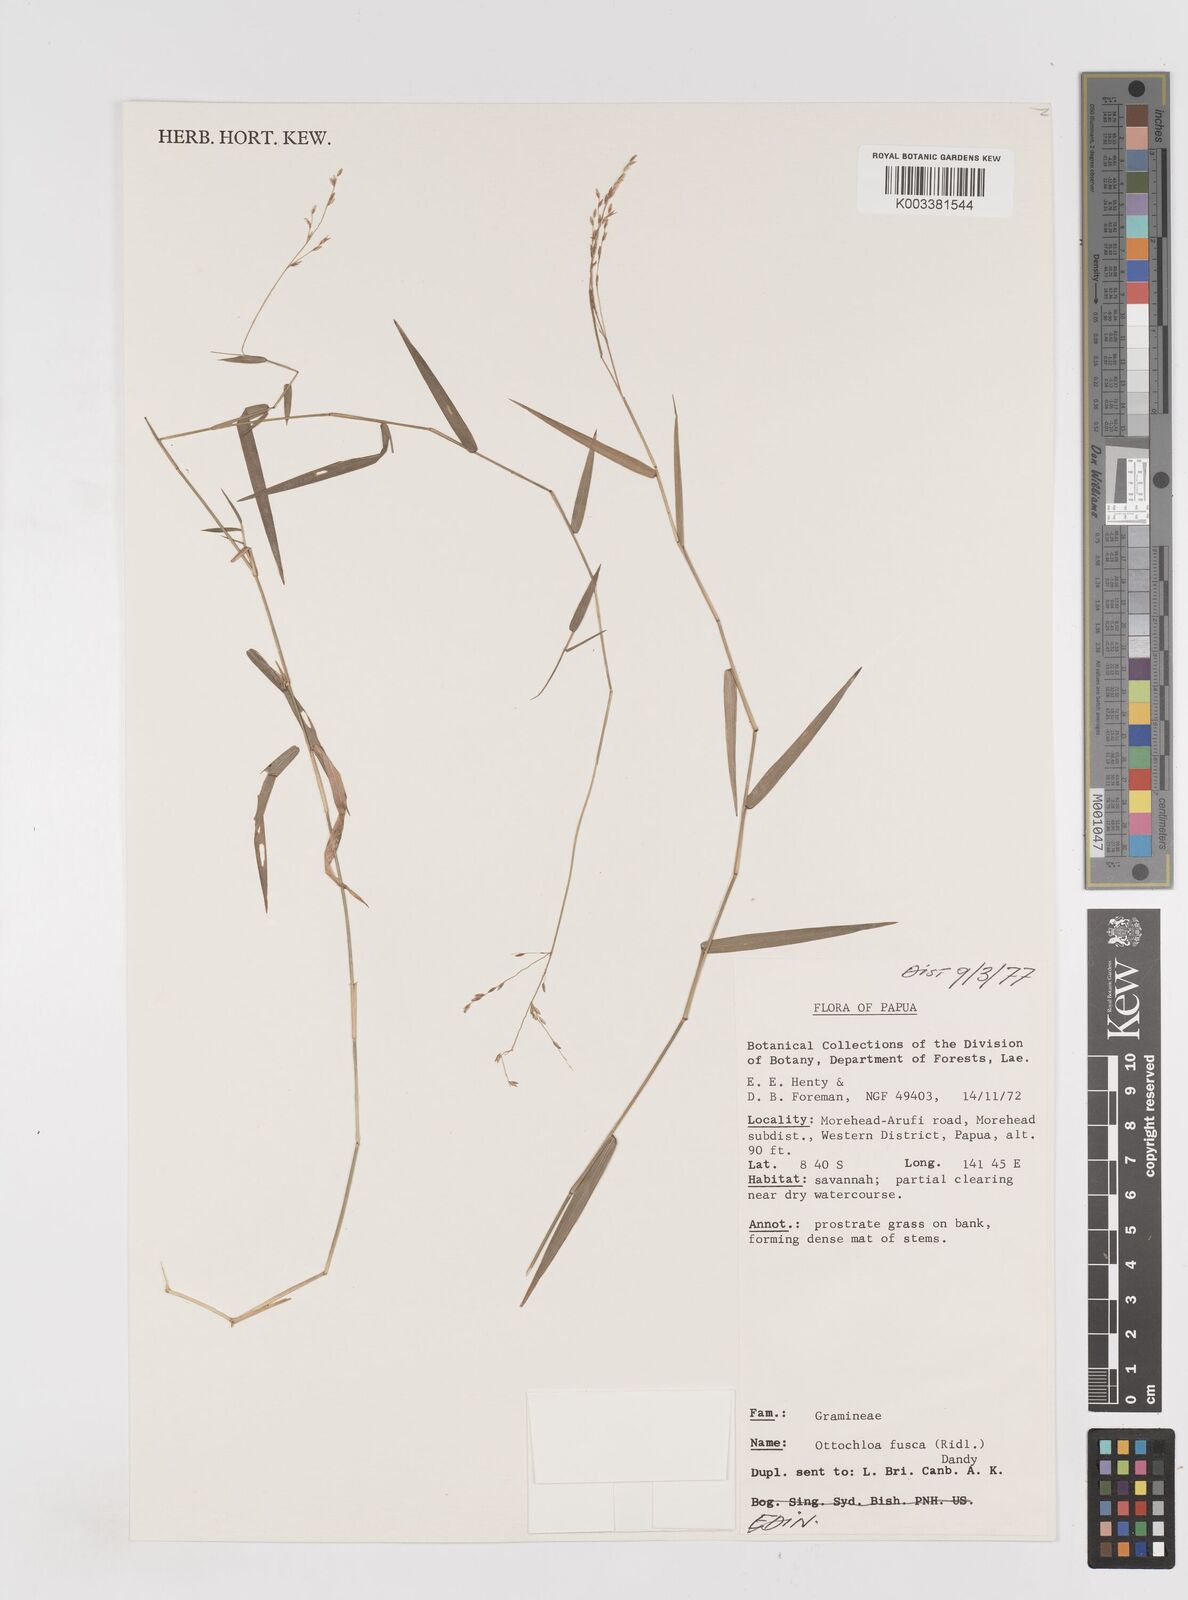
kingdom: Plantae
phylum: Tracheophyta
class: Liliopsida
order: Poales
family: Poaceae
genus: Ottochloa
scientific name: Ottochloa nodosa
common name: Slender-panic grass
